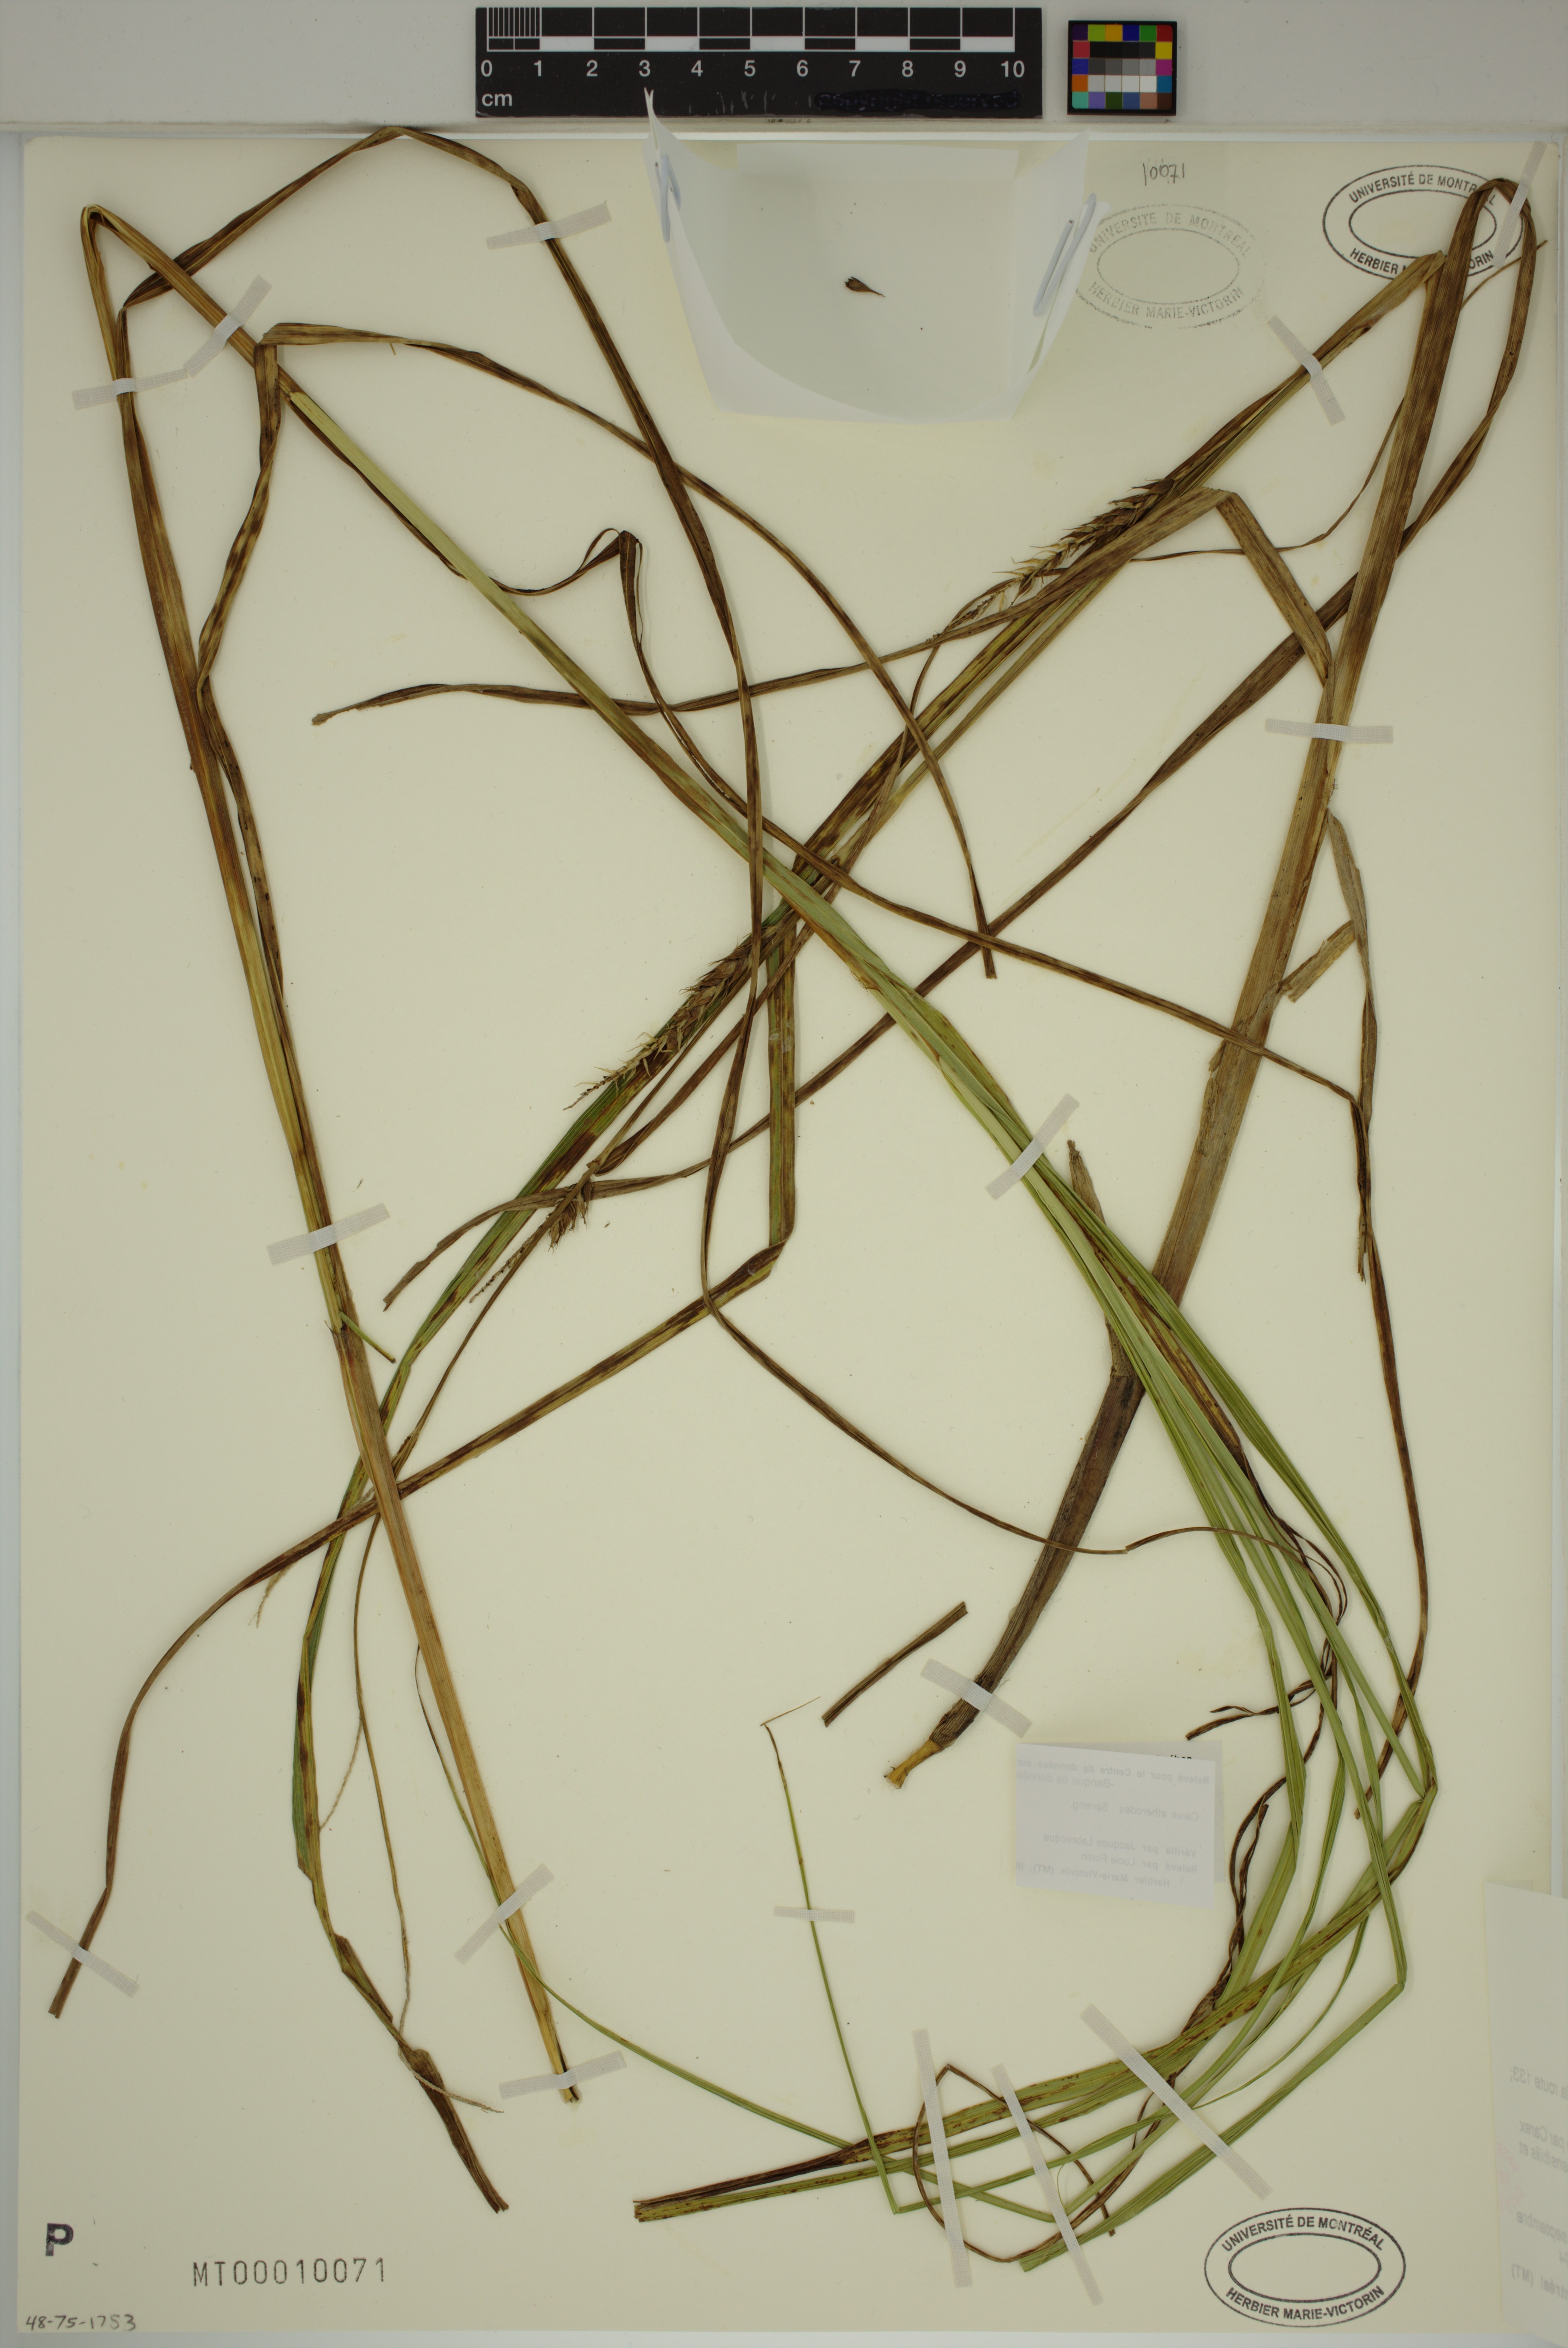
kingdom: Plantae
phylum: Tracheophyta
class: Liliopsida
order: Poales
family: Cyperaceae
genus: Carex
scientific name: Carex atherodes
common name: Wheat sedge
